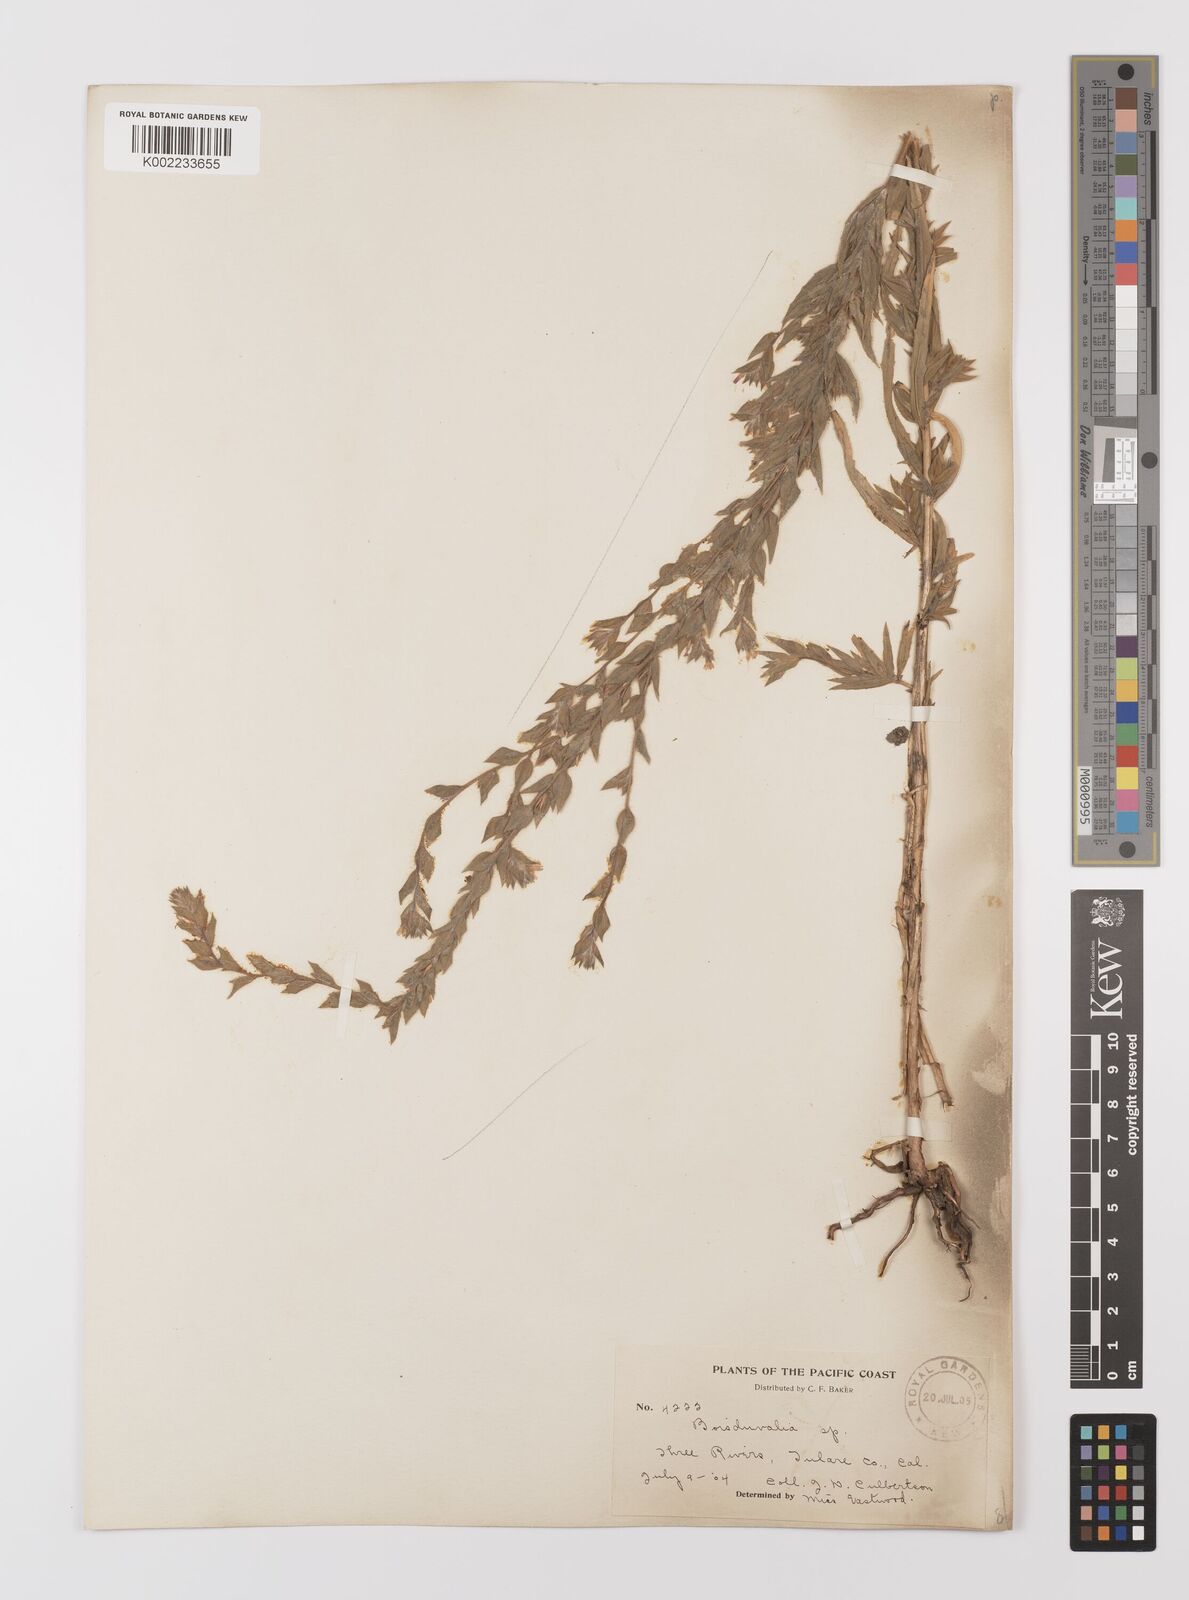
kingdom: Plantae
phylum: Tracheophyta
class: Magnoliopsida
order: Myrtales
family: Onagraceae
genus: Epilobium
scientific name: Epilobium densiflorum
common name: Dense spike-primrose
